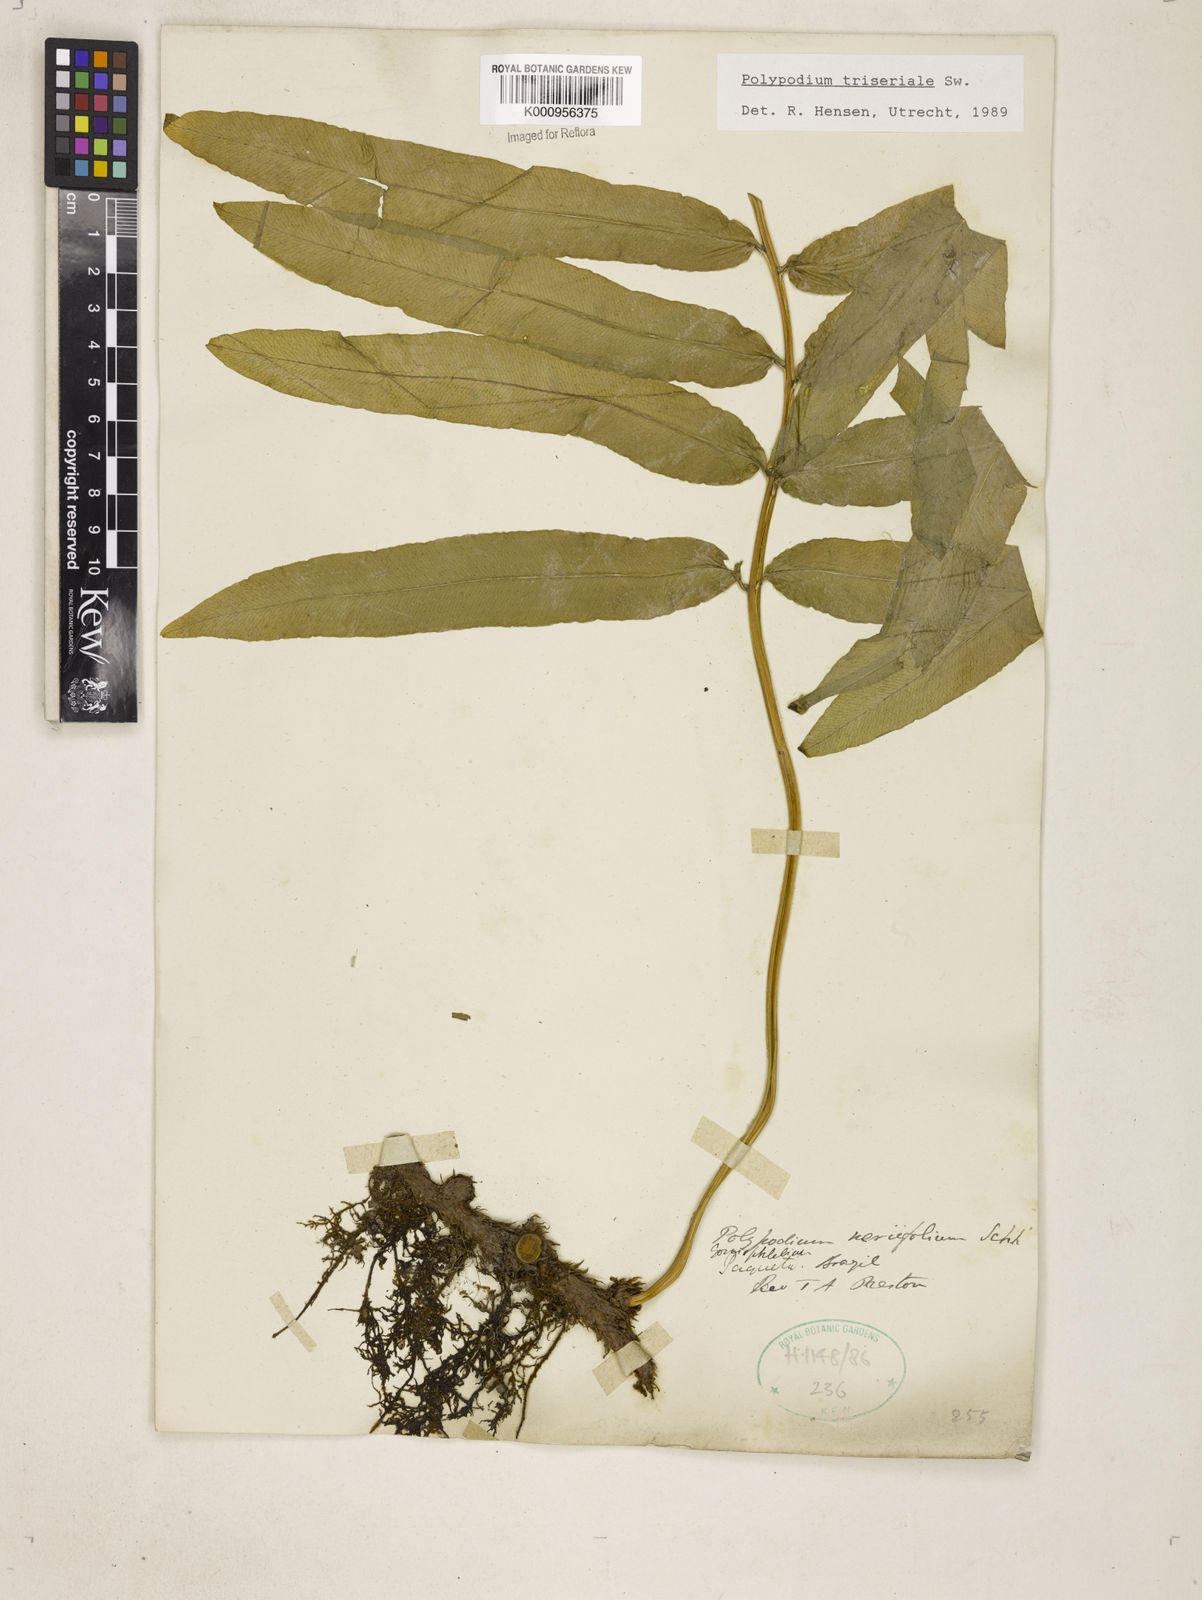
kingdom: Plantae
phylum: Tracheophyta
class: Polypodiopsida
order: Polypodiales
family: Polypodiaceae
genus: Serpocaulon
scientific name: Serpocaulon triseriale
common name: Angle-vein fern
